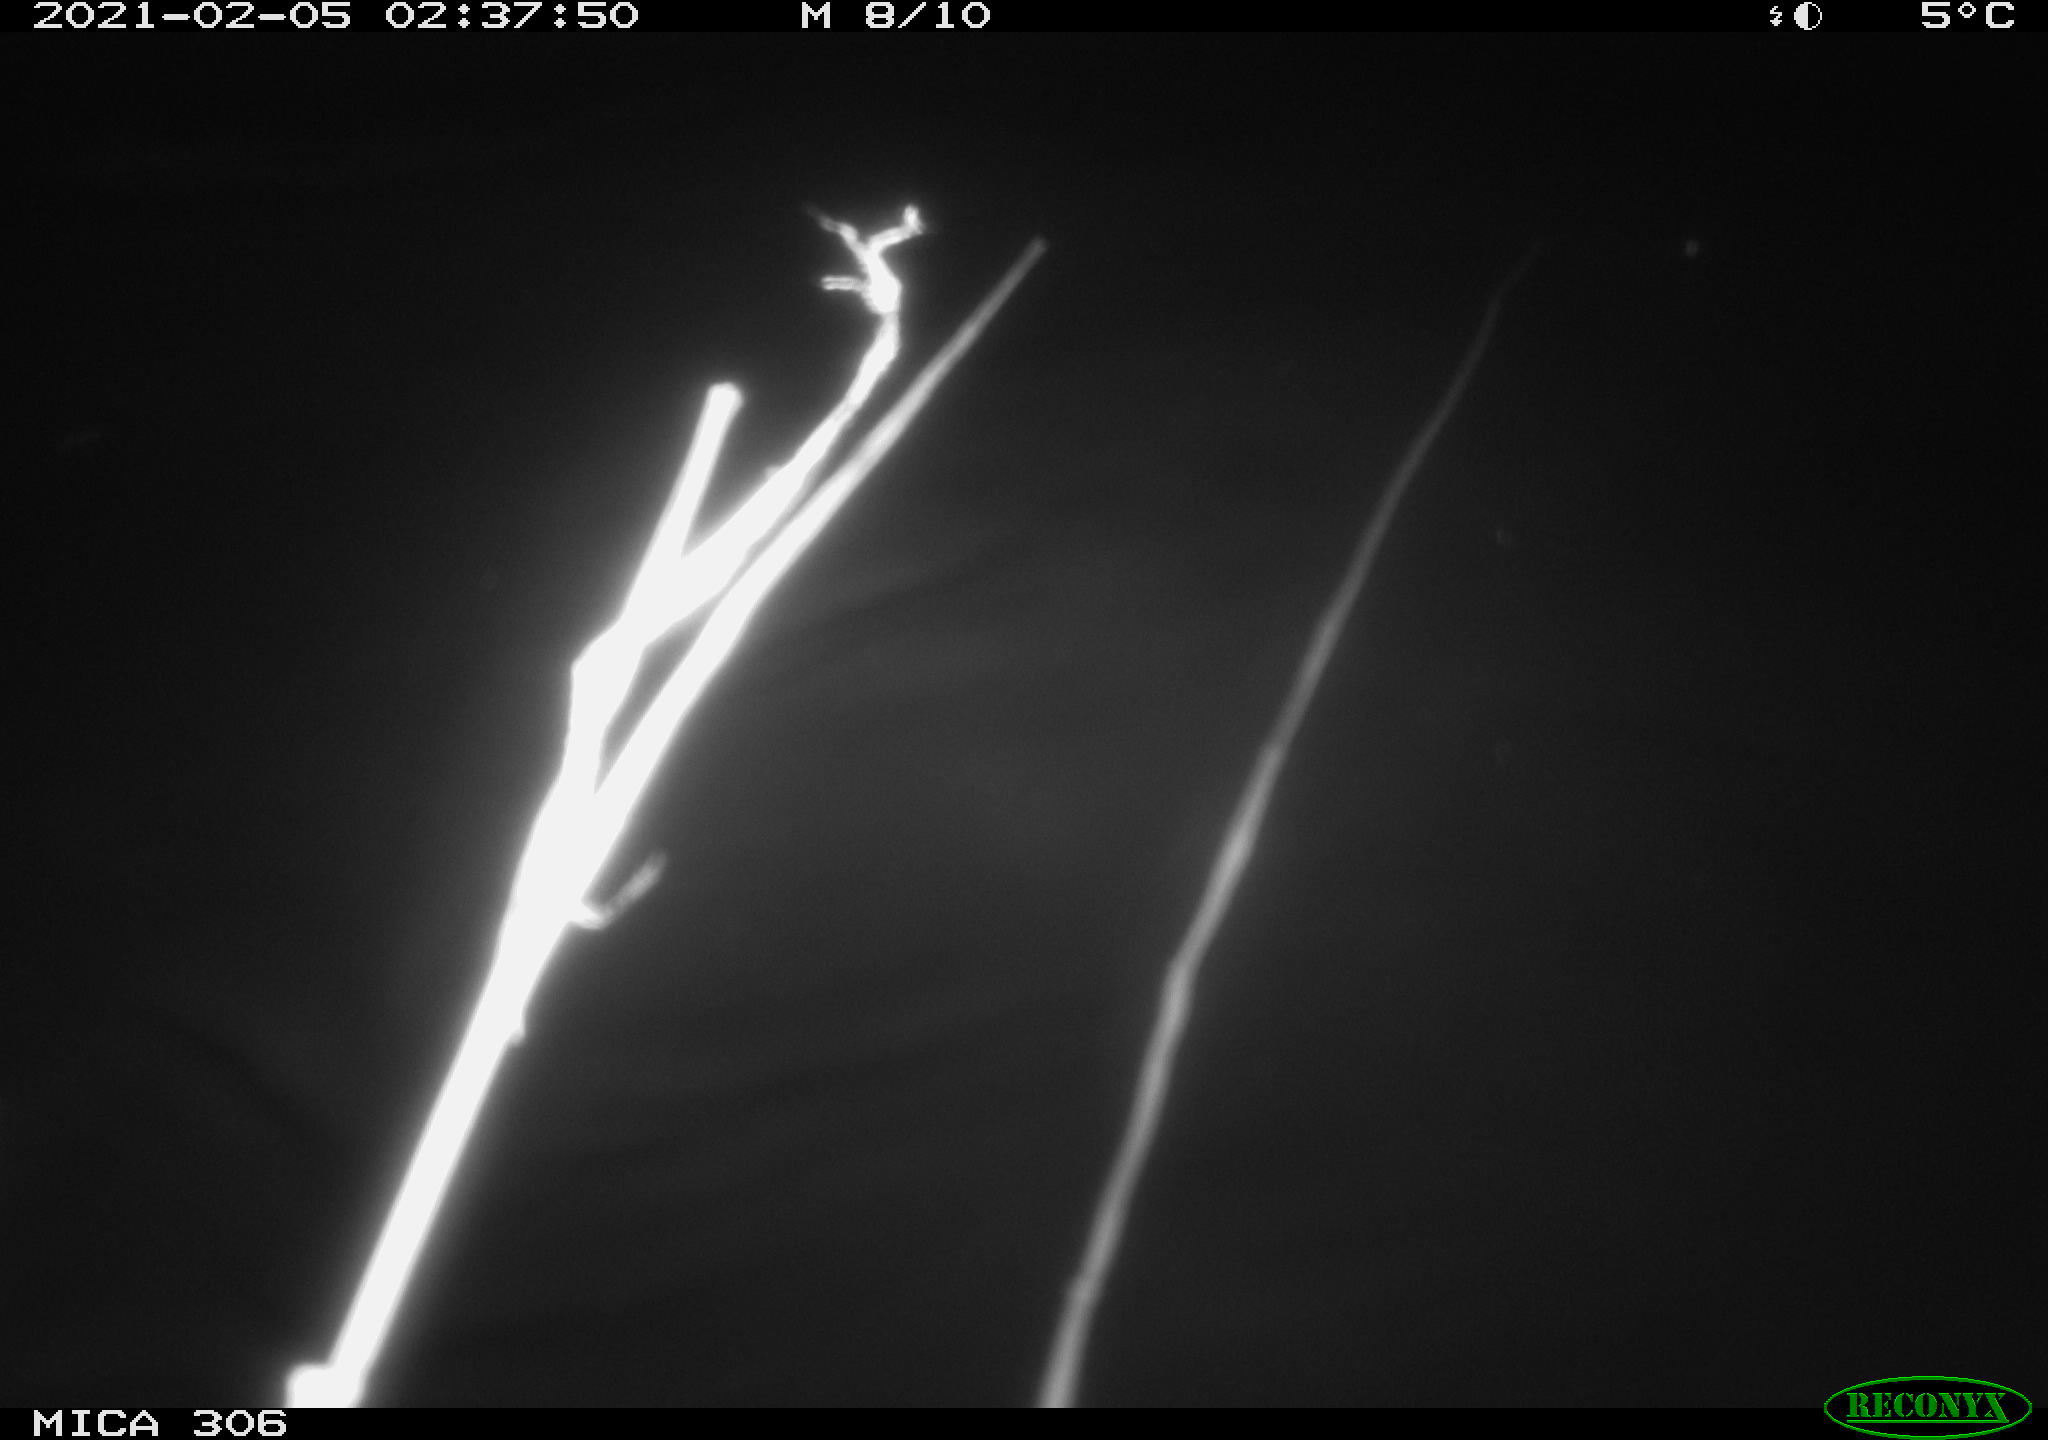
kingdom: Animalia
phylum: Chordata
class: Mammalia
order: Rodentia
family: Cricetidae
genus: Ondatra
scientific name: Ondatra zibethicus
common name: Muskrat
